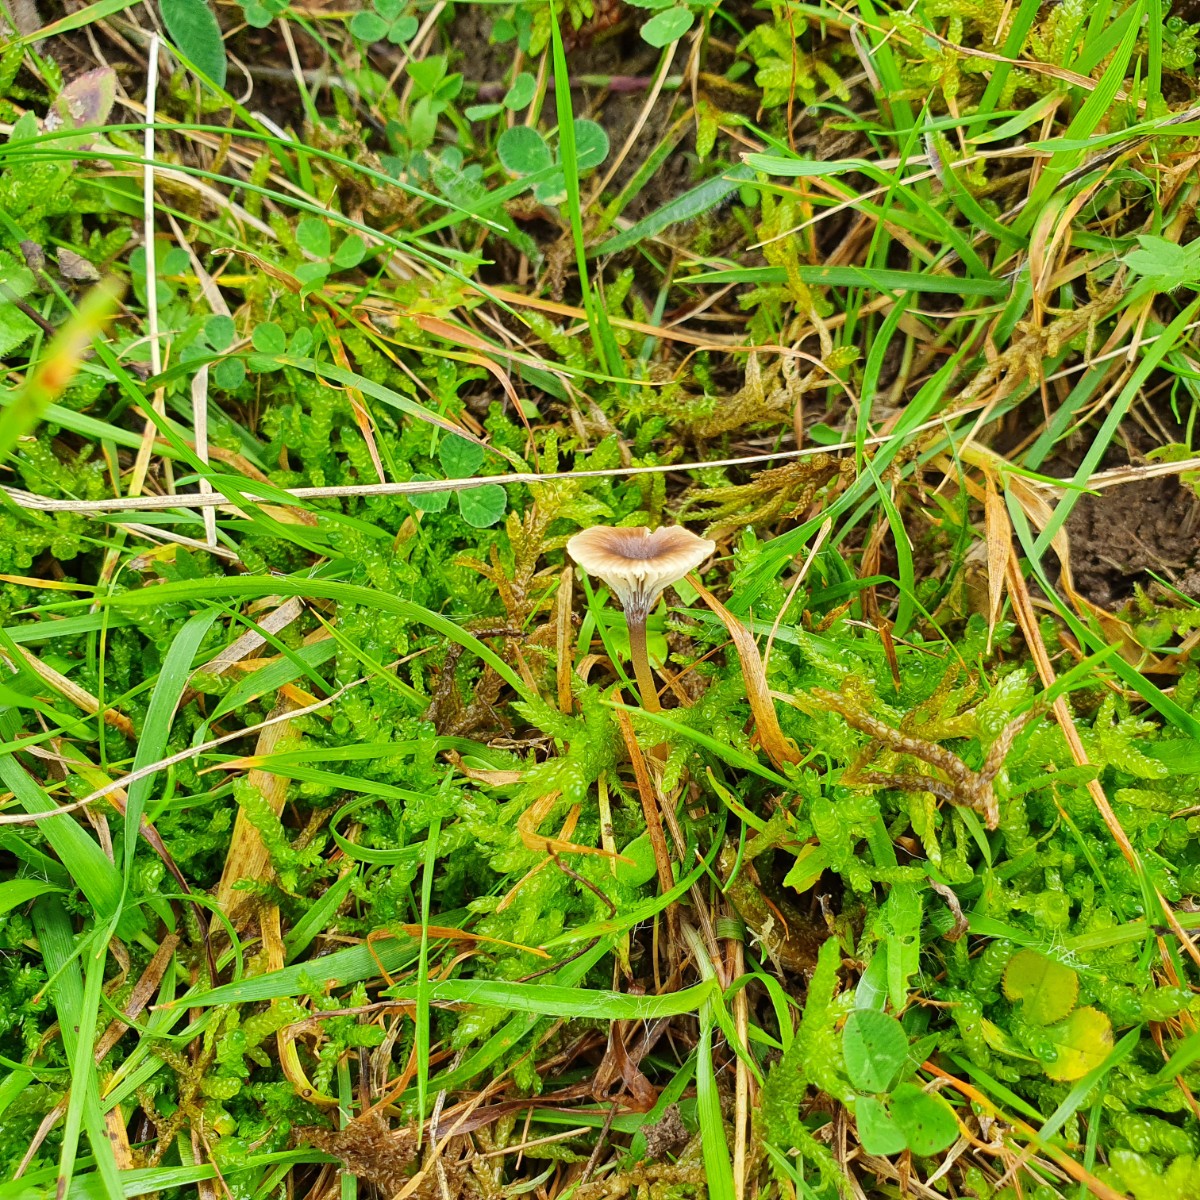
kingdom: Fungi
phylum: Basidiomycota
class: Agaricomycetes
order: Hymenochaetales
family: Rickenellaceae
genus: Rickenella
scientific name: Rickenella swartzii
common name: finstokket mosnavlehat
